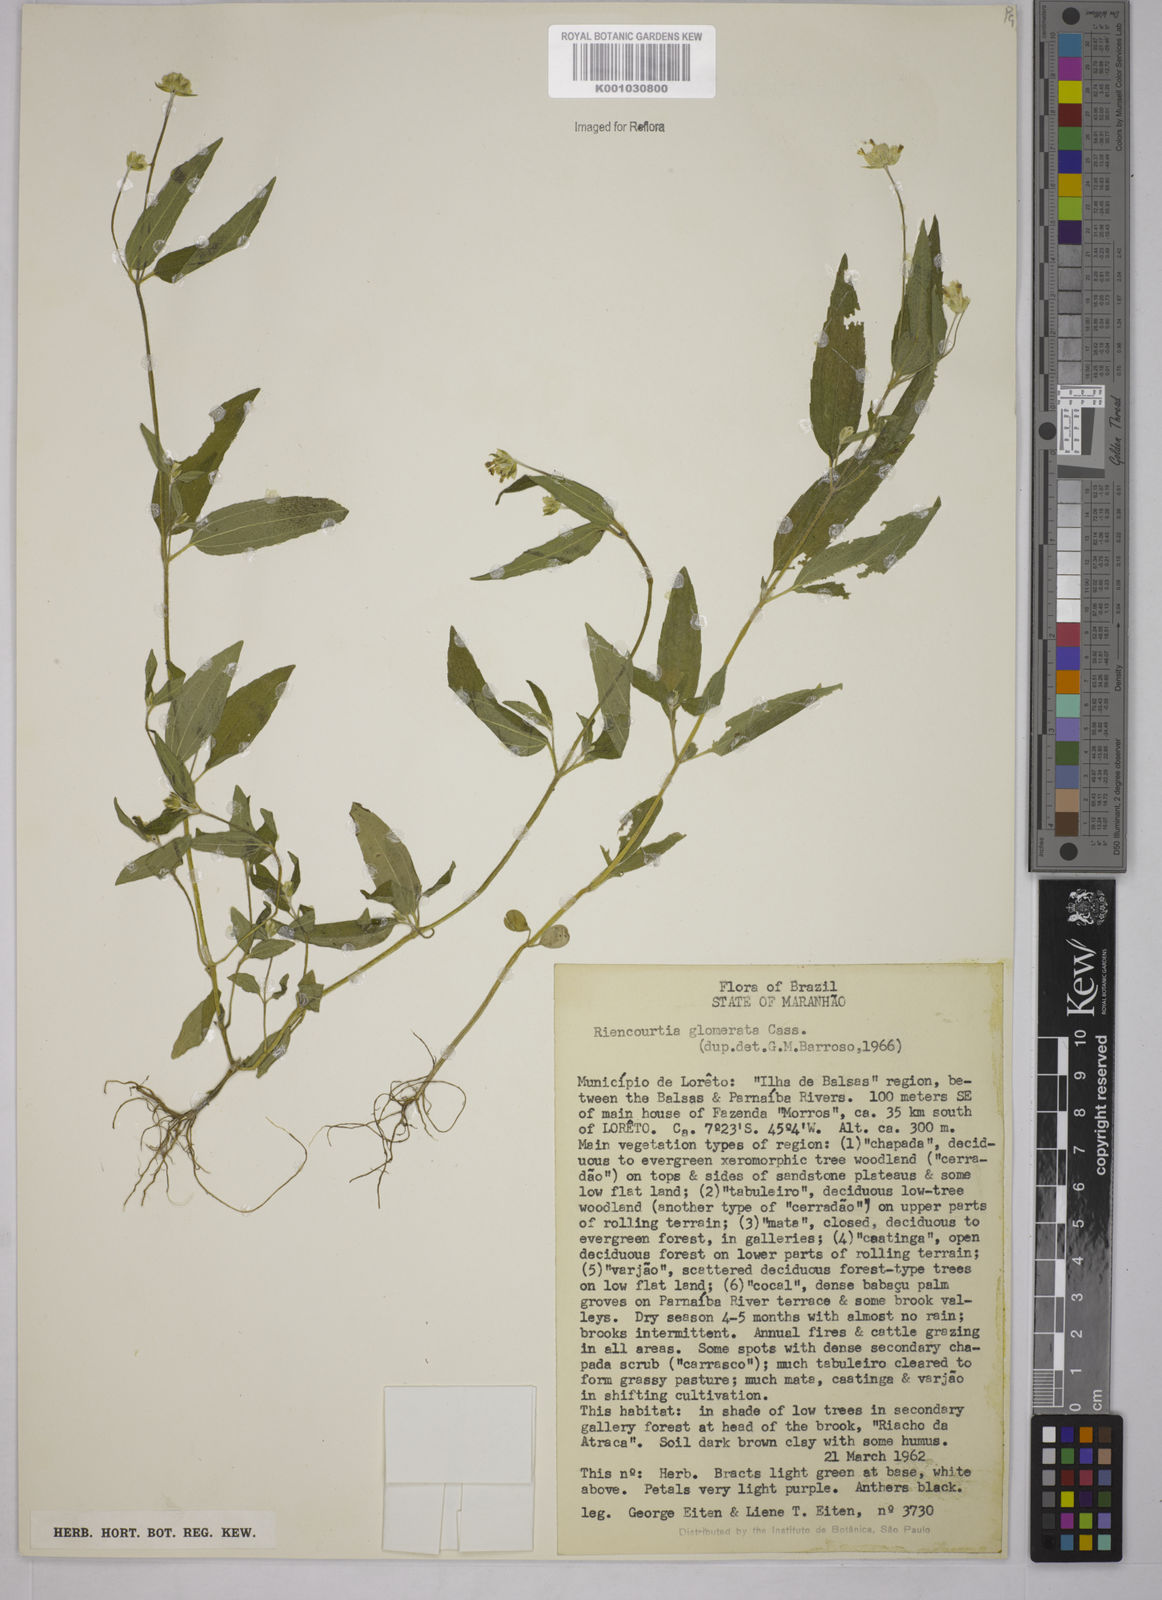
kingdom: Plantae
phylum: Tracheophyta
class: Magnoliopsida
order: Asterales
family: Asteraceae
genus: Riencourtia
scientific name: Riencourtia glomerata
